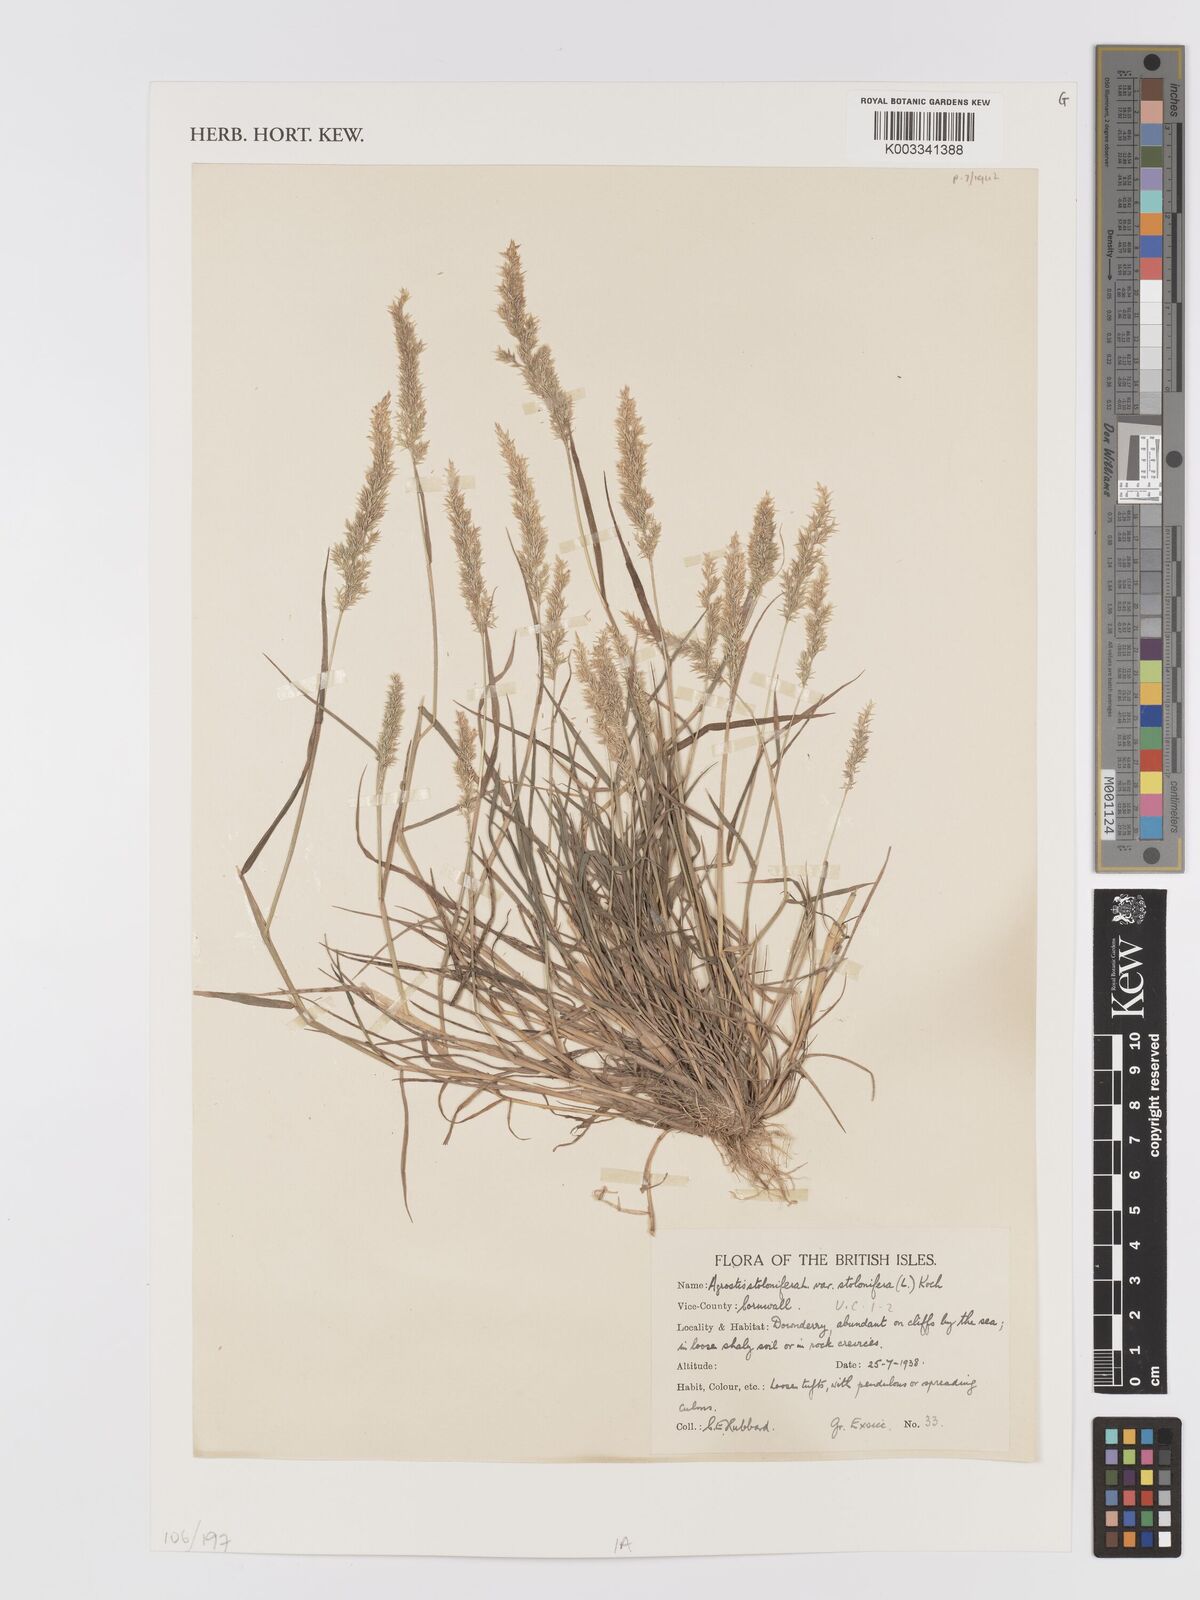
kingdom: Plantae
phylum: Tracheophyta
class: Liliopsida
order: Poales
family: Poaceae
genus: Agrostis
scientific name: Agrostis stolonifera
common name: Creeping bentgrass
